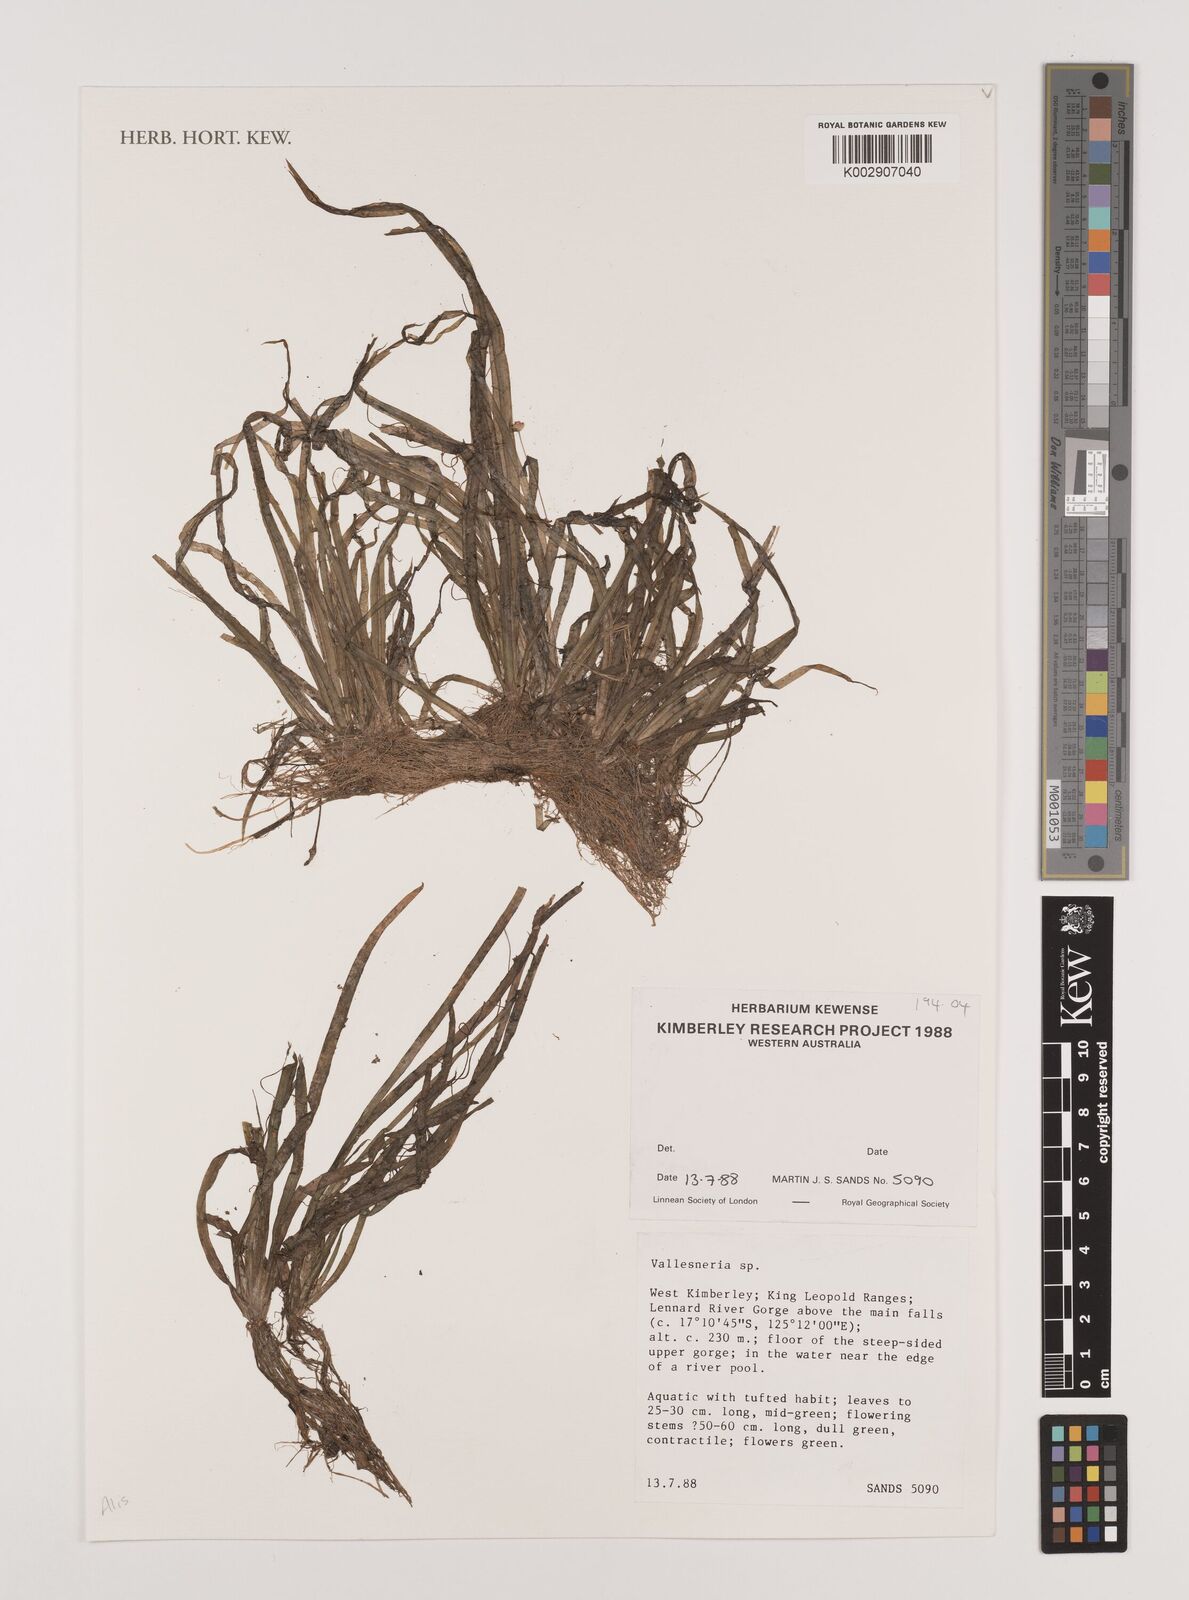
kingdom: Plantae
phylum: Tracheophyta
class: Liliopsida
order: Alismatales
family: Hydrocharitaceae
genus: Vallisneria
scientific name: Vallisneria
